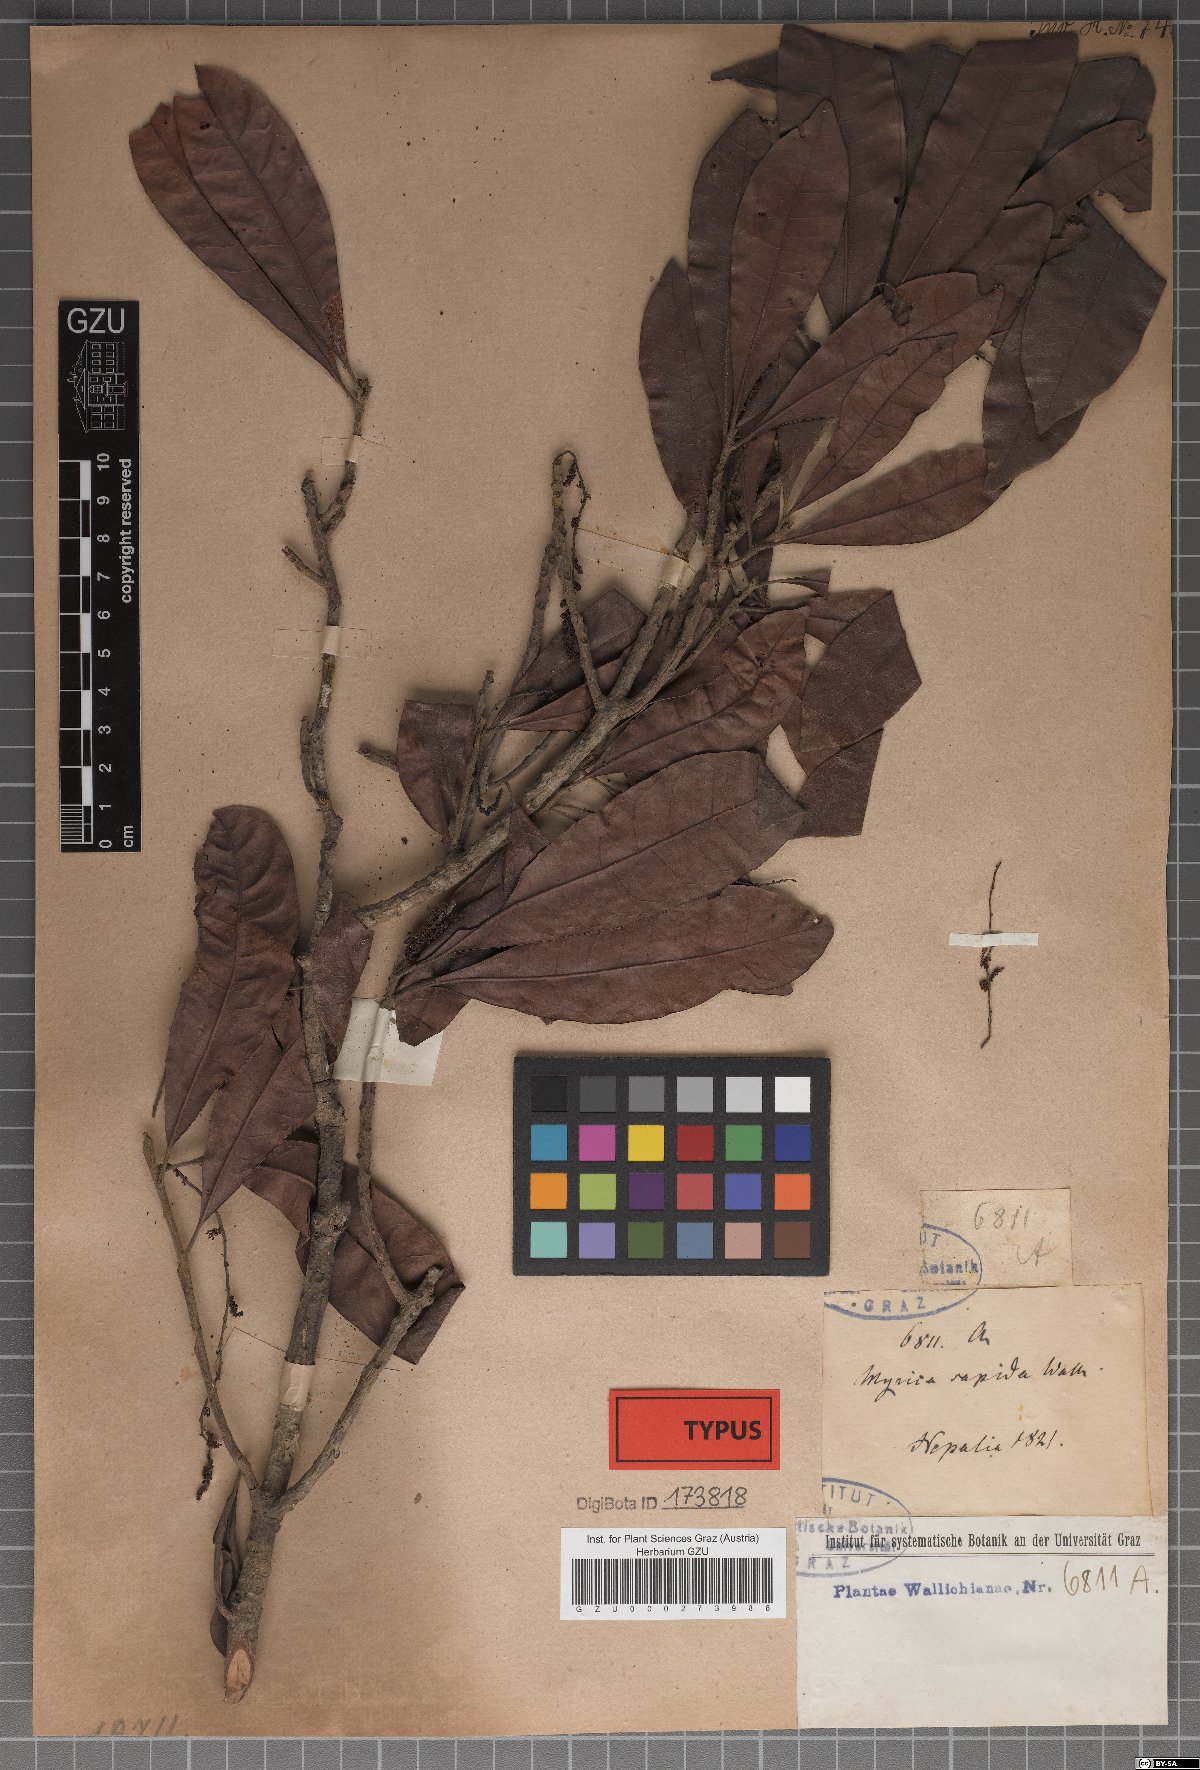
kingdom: Plantae
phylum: Tracheophyta
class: Magnoliopsida
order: Fagales
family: Myricaceae
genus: Morella
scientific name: Morella esculenta
